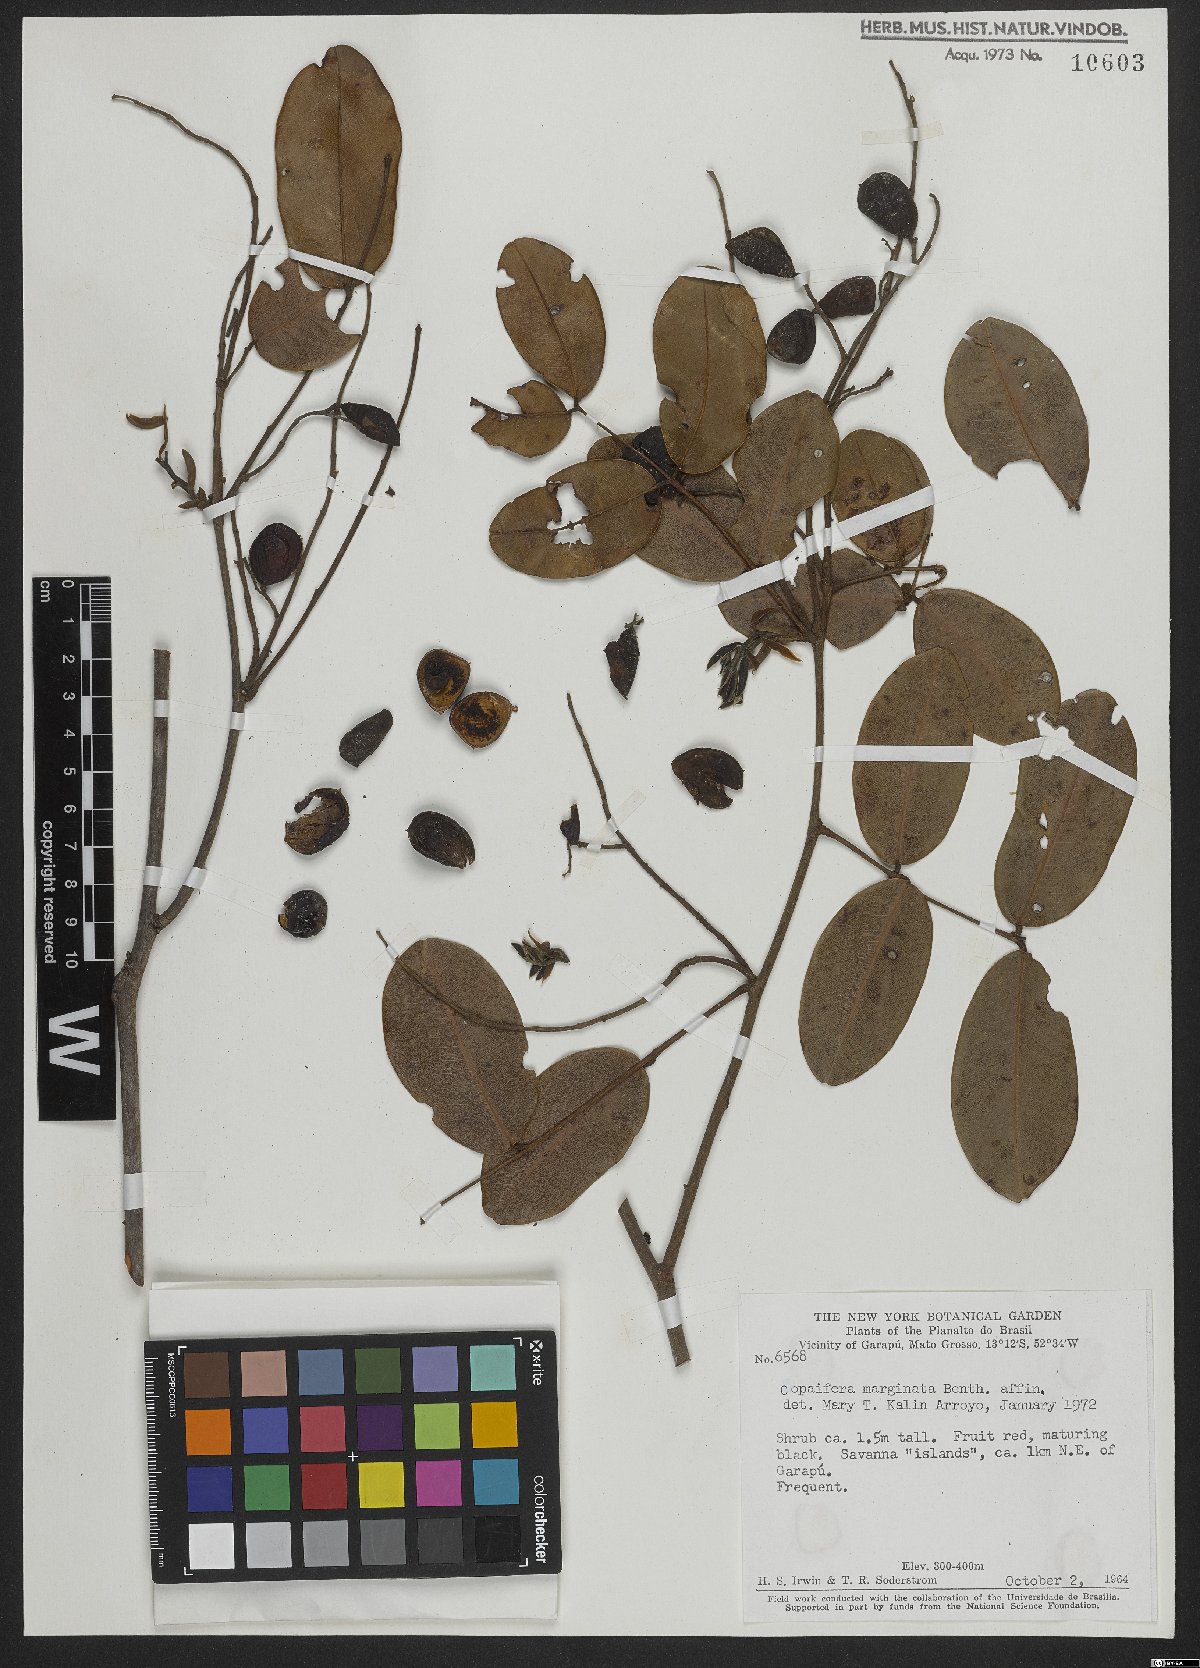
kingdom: Plantae
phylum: Tracheophyta
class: Magnoliopsida
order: Fabales
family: Fabaceae
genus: Copaifera
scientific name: Copaifera marginata
